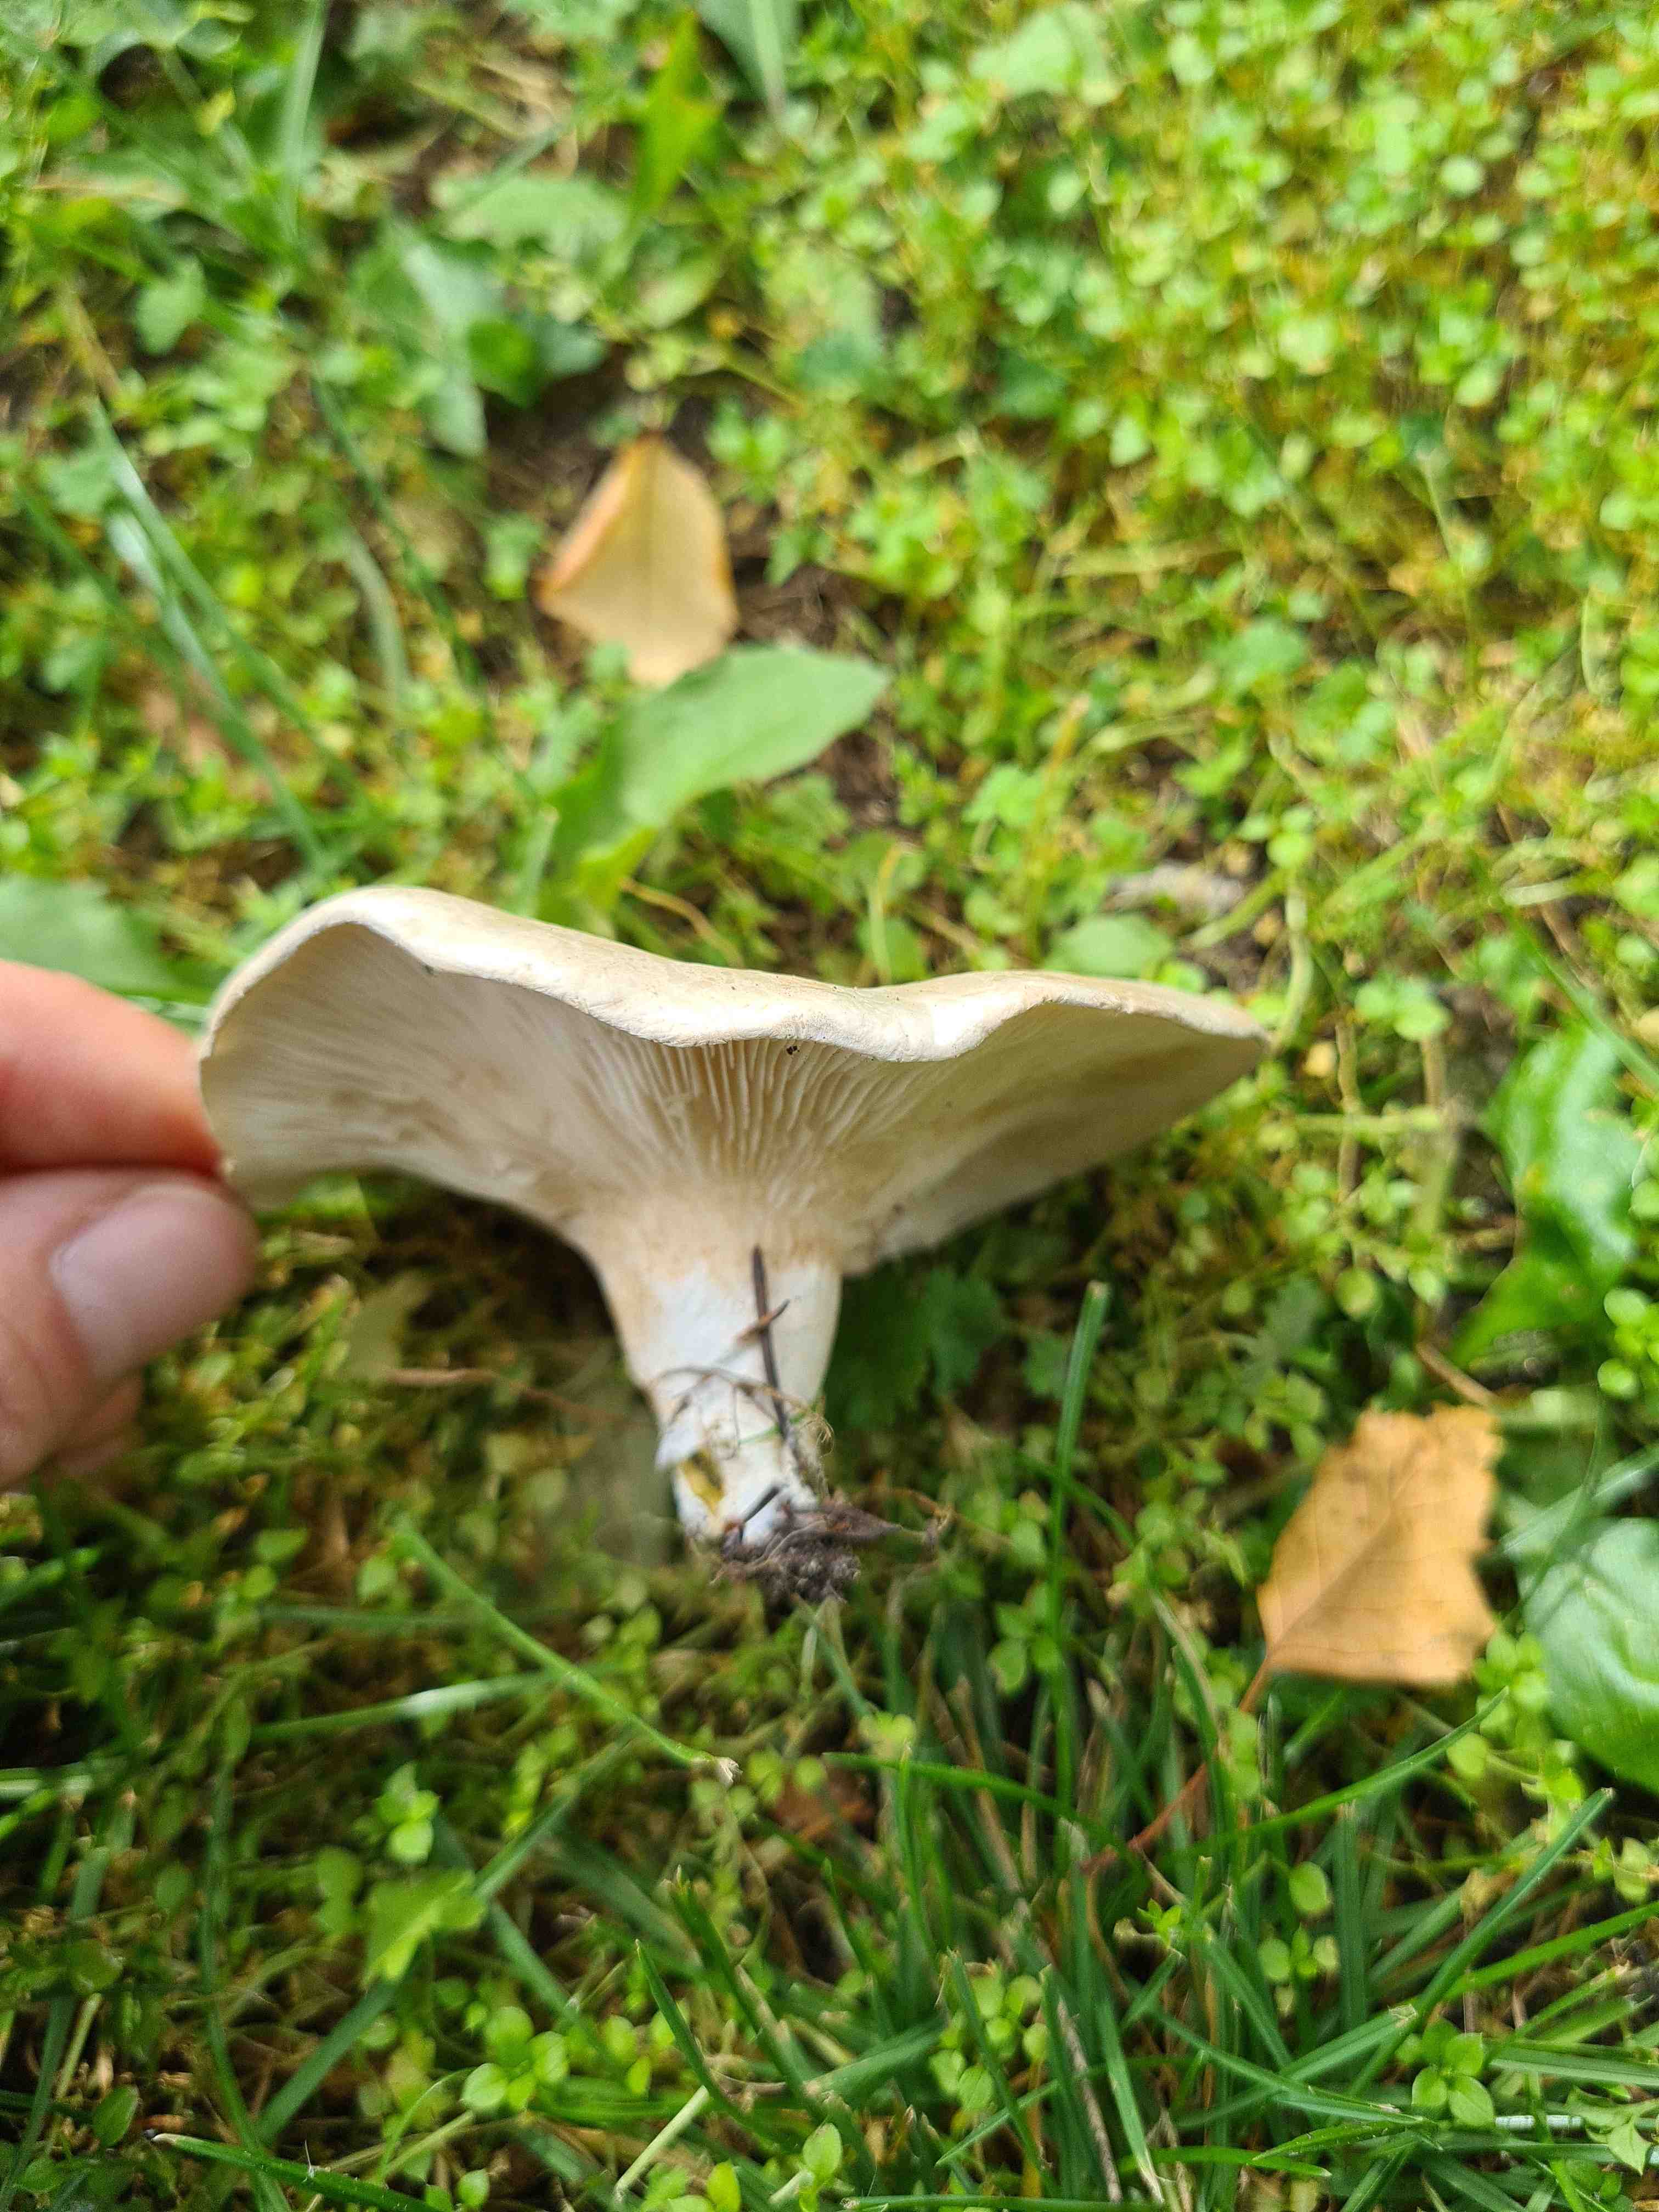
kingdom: Fungi
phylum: Basidiomycota
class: Agaricomycetes
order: Agaricales
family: Entolomataceae
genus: Clitopilus
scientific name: Clitopilus prunulus
